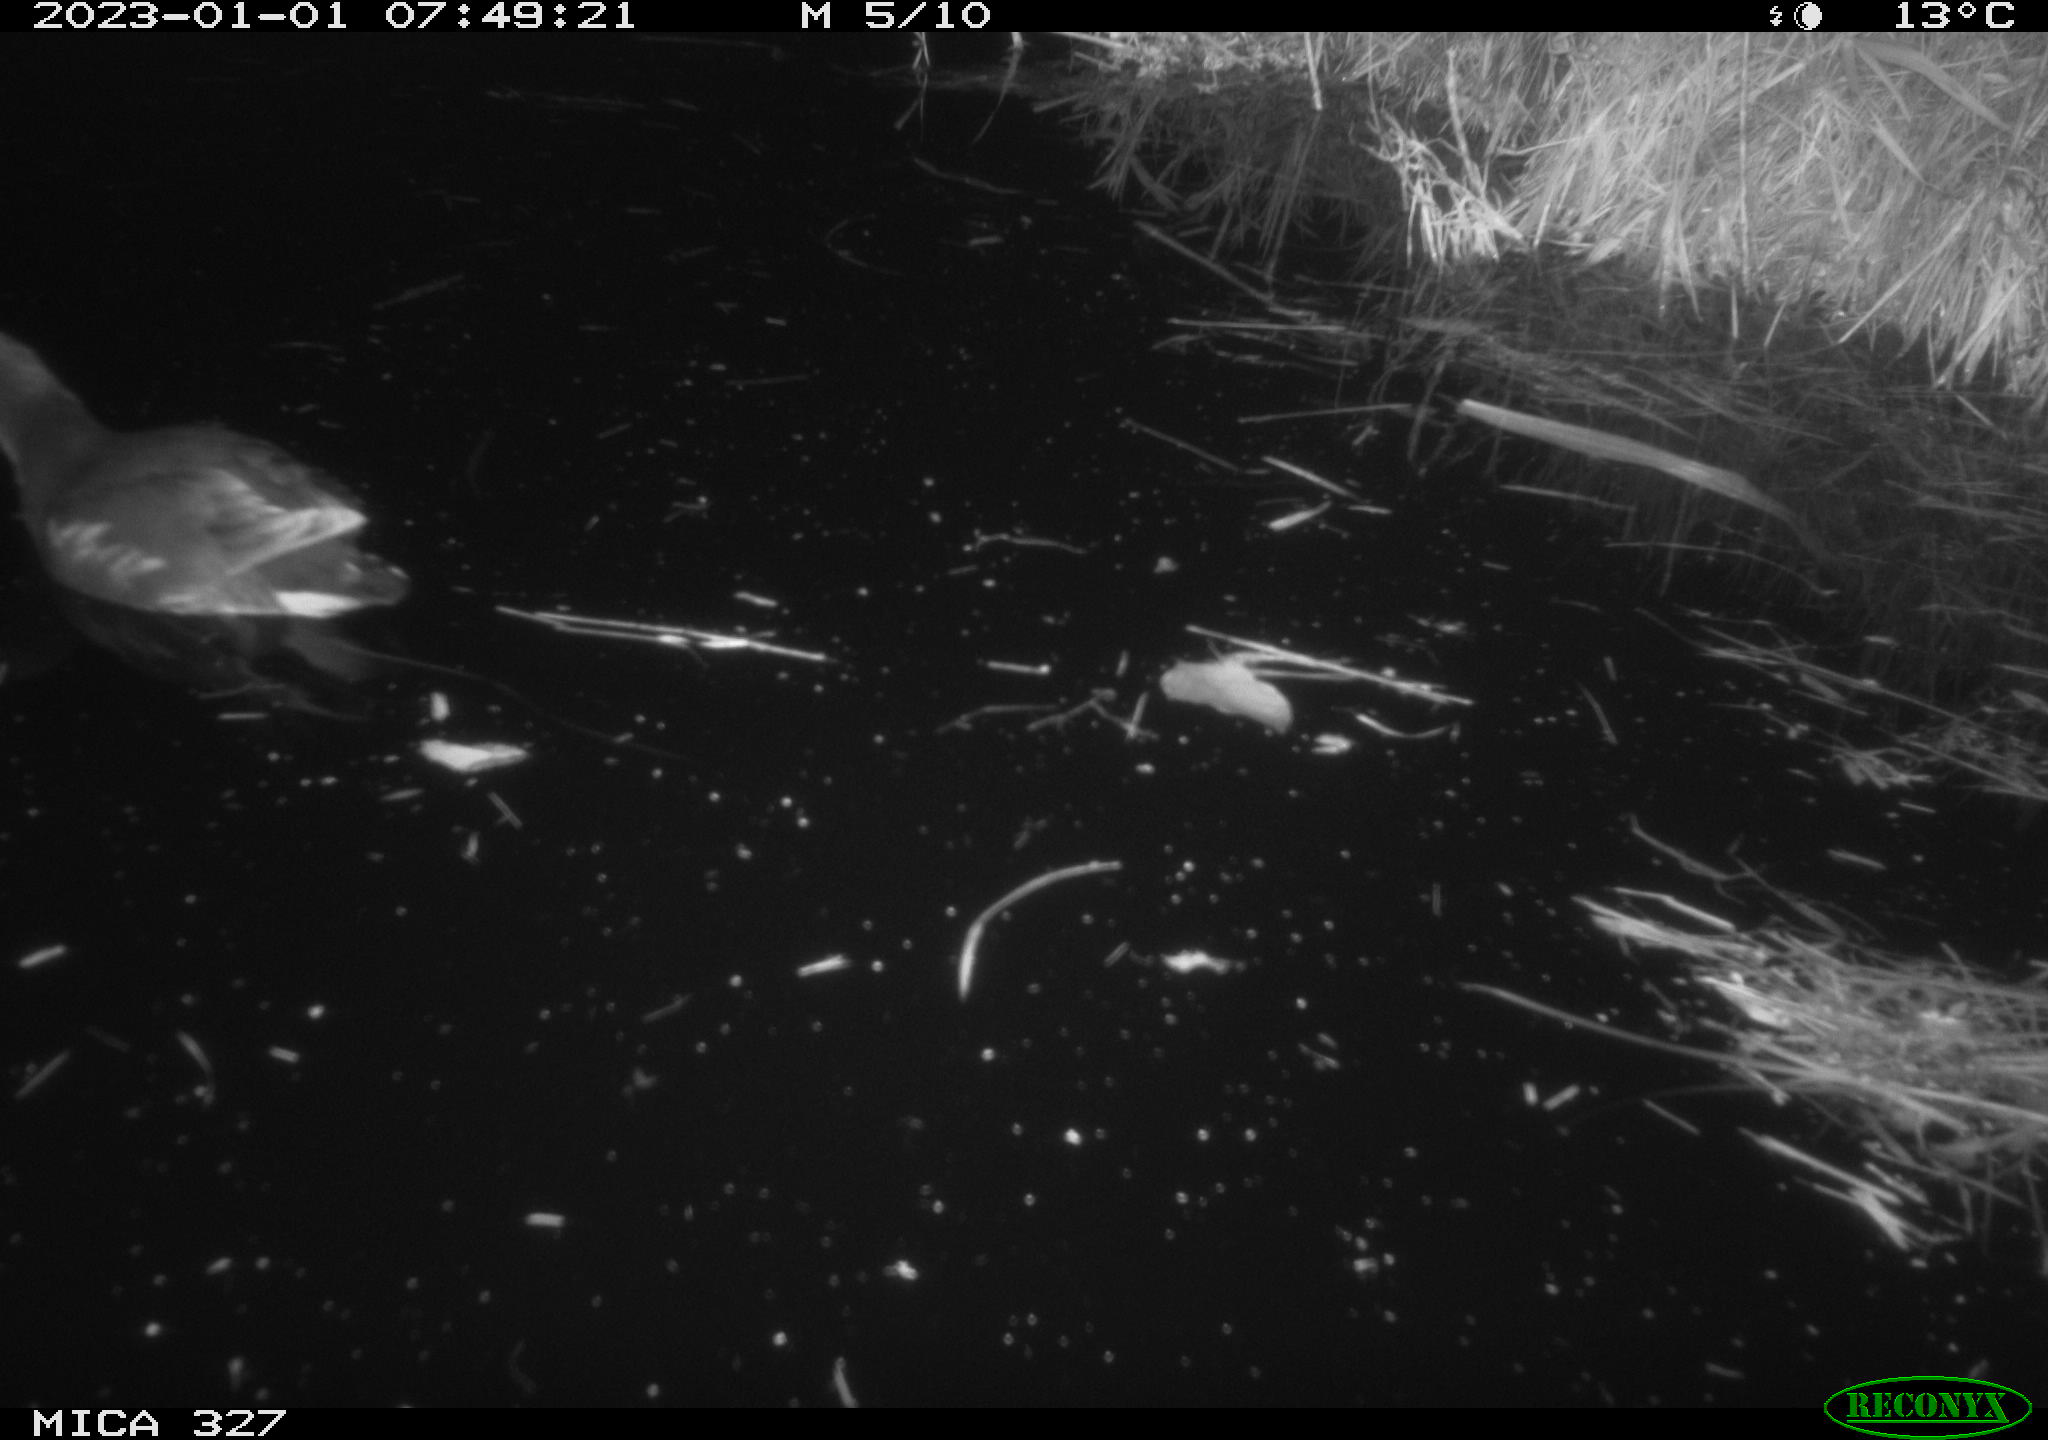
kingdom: Animalia
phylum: Chordata
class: Aves
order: Gruiformes
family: Rallidae
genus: Gallinula
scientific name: Gallinula chloropus
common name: Common moorhen
